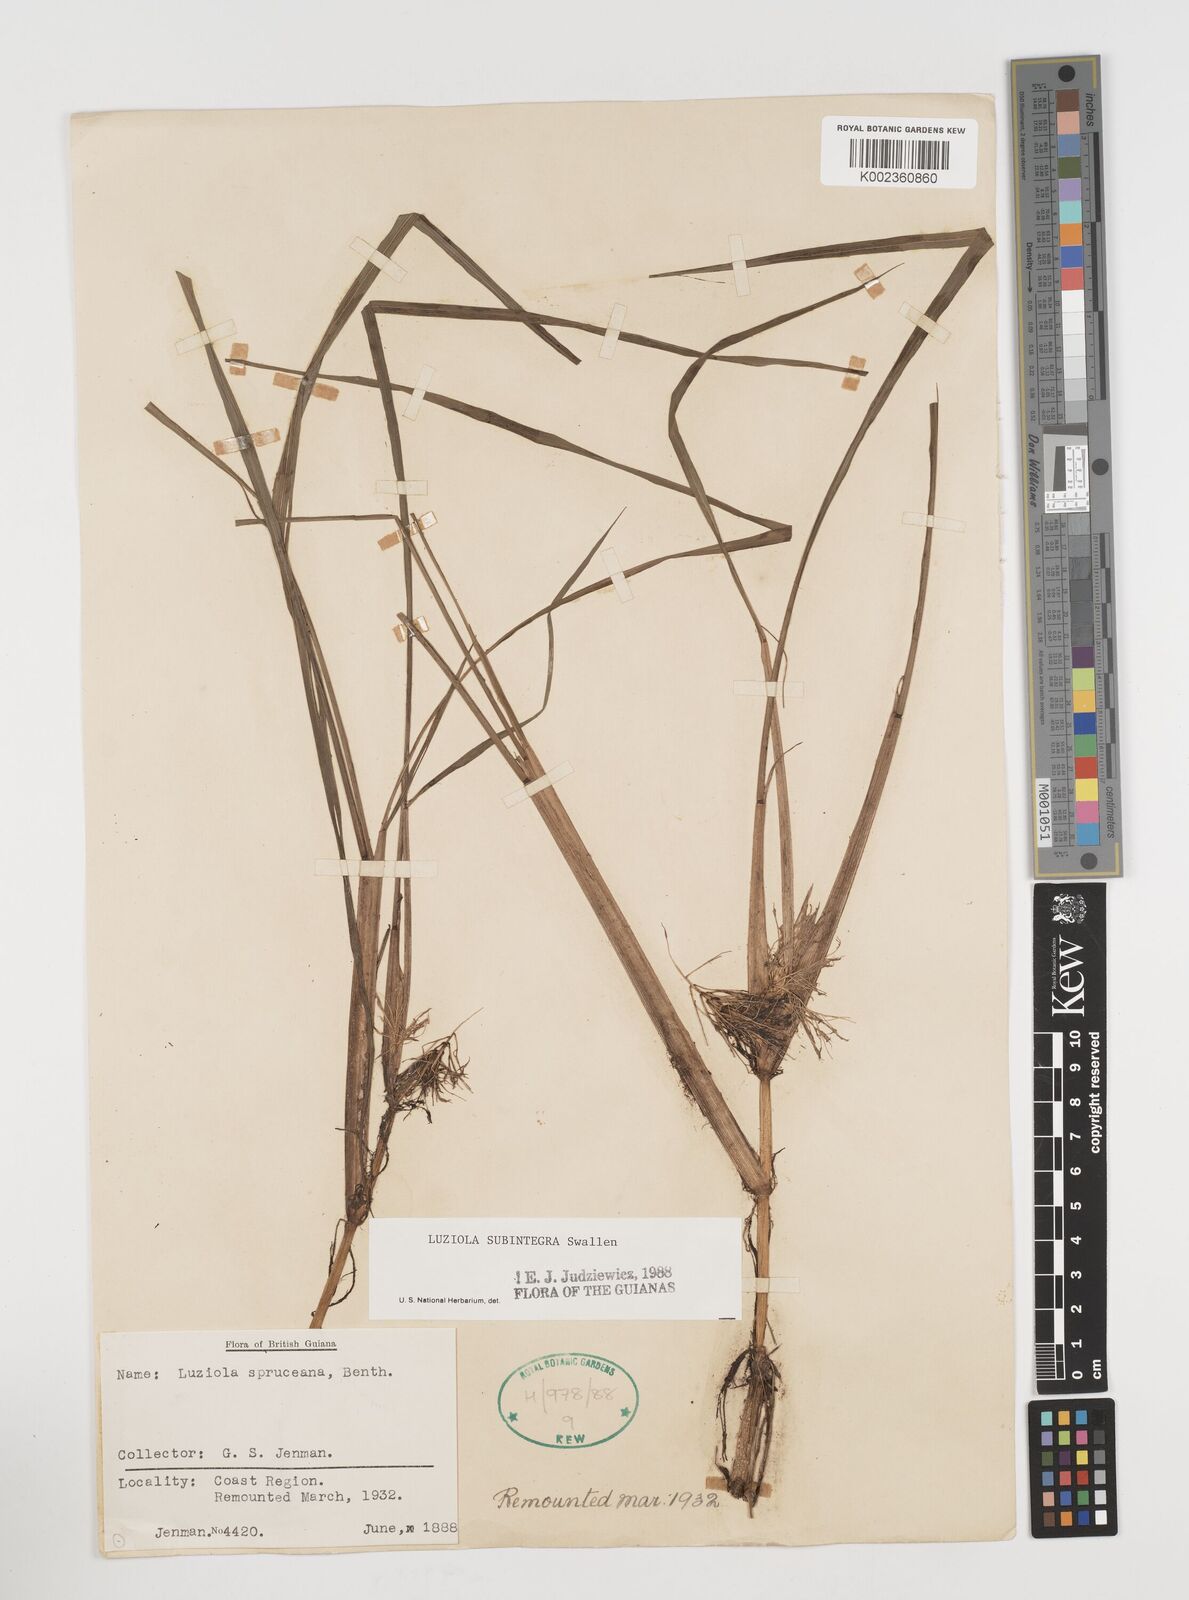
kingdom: Plantae
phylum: Tracheophyta
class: Liliopsida
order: Poales
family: Poaceae
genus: Luziola
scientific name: Luziola subintegra
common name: Large watergrass
